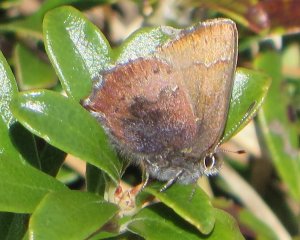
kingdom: Animalia
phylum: Arthropoda
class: Insecta
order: Lepidoptera
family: Lycaenidae
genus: Incisalia
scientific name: Incisalia irioides
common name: Brown Elfin
